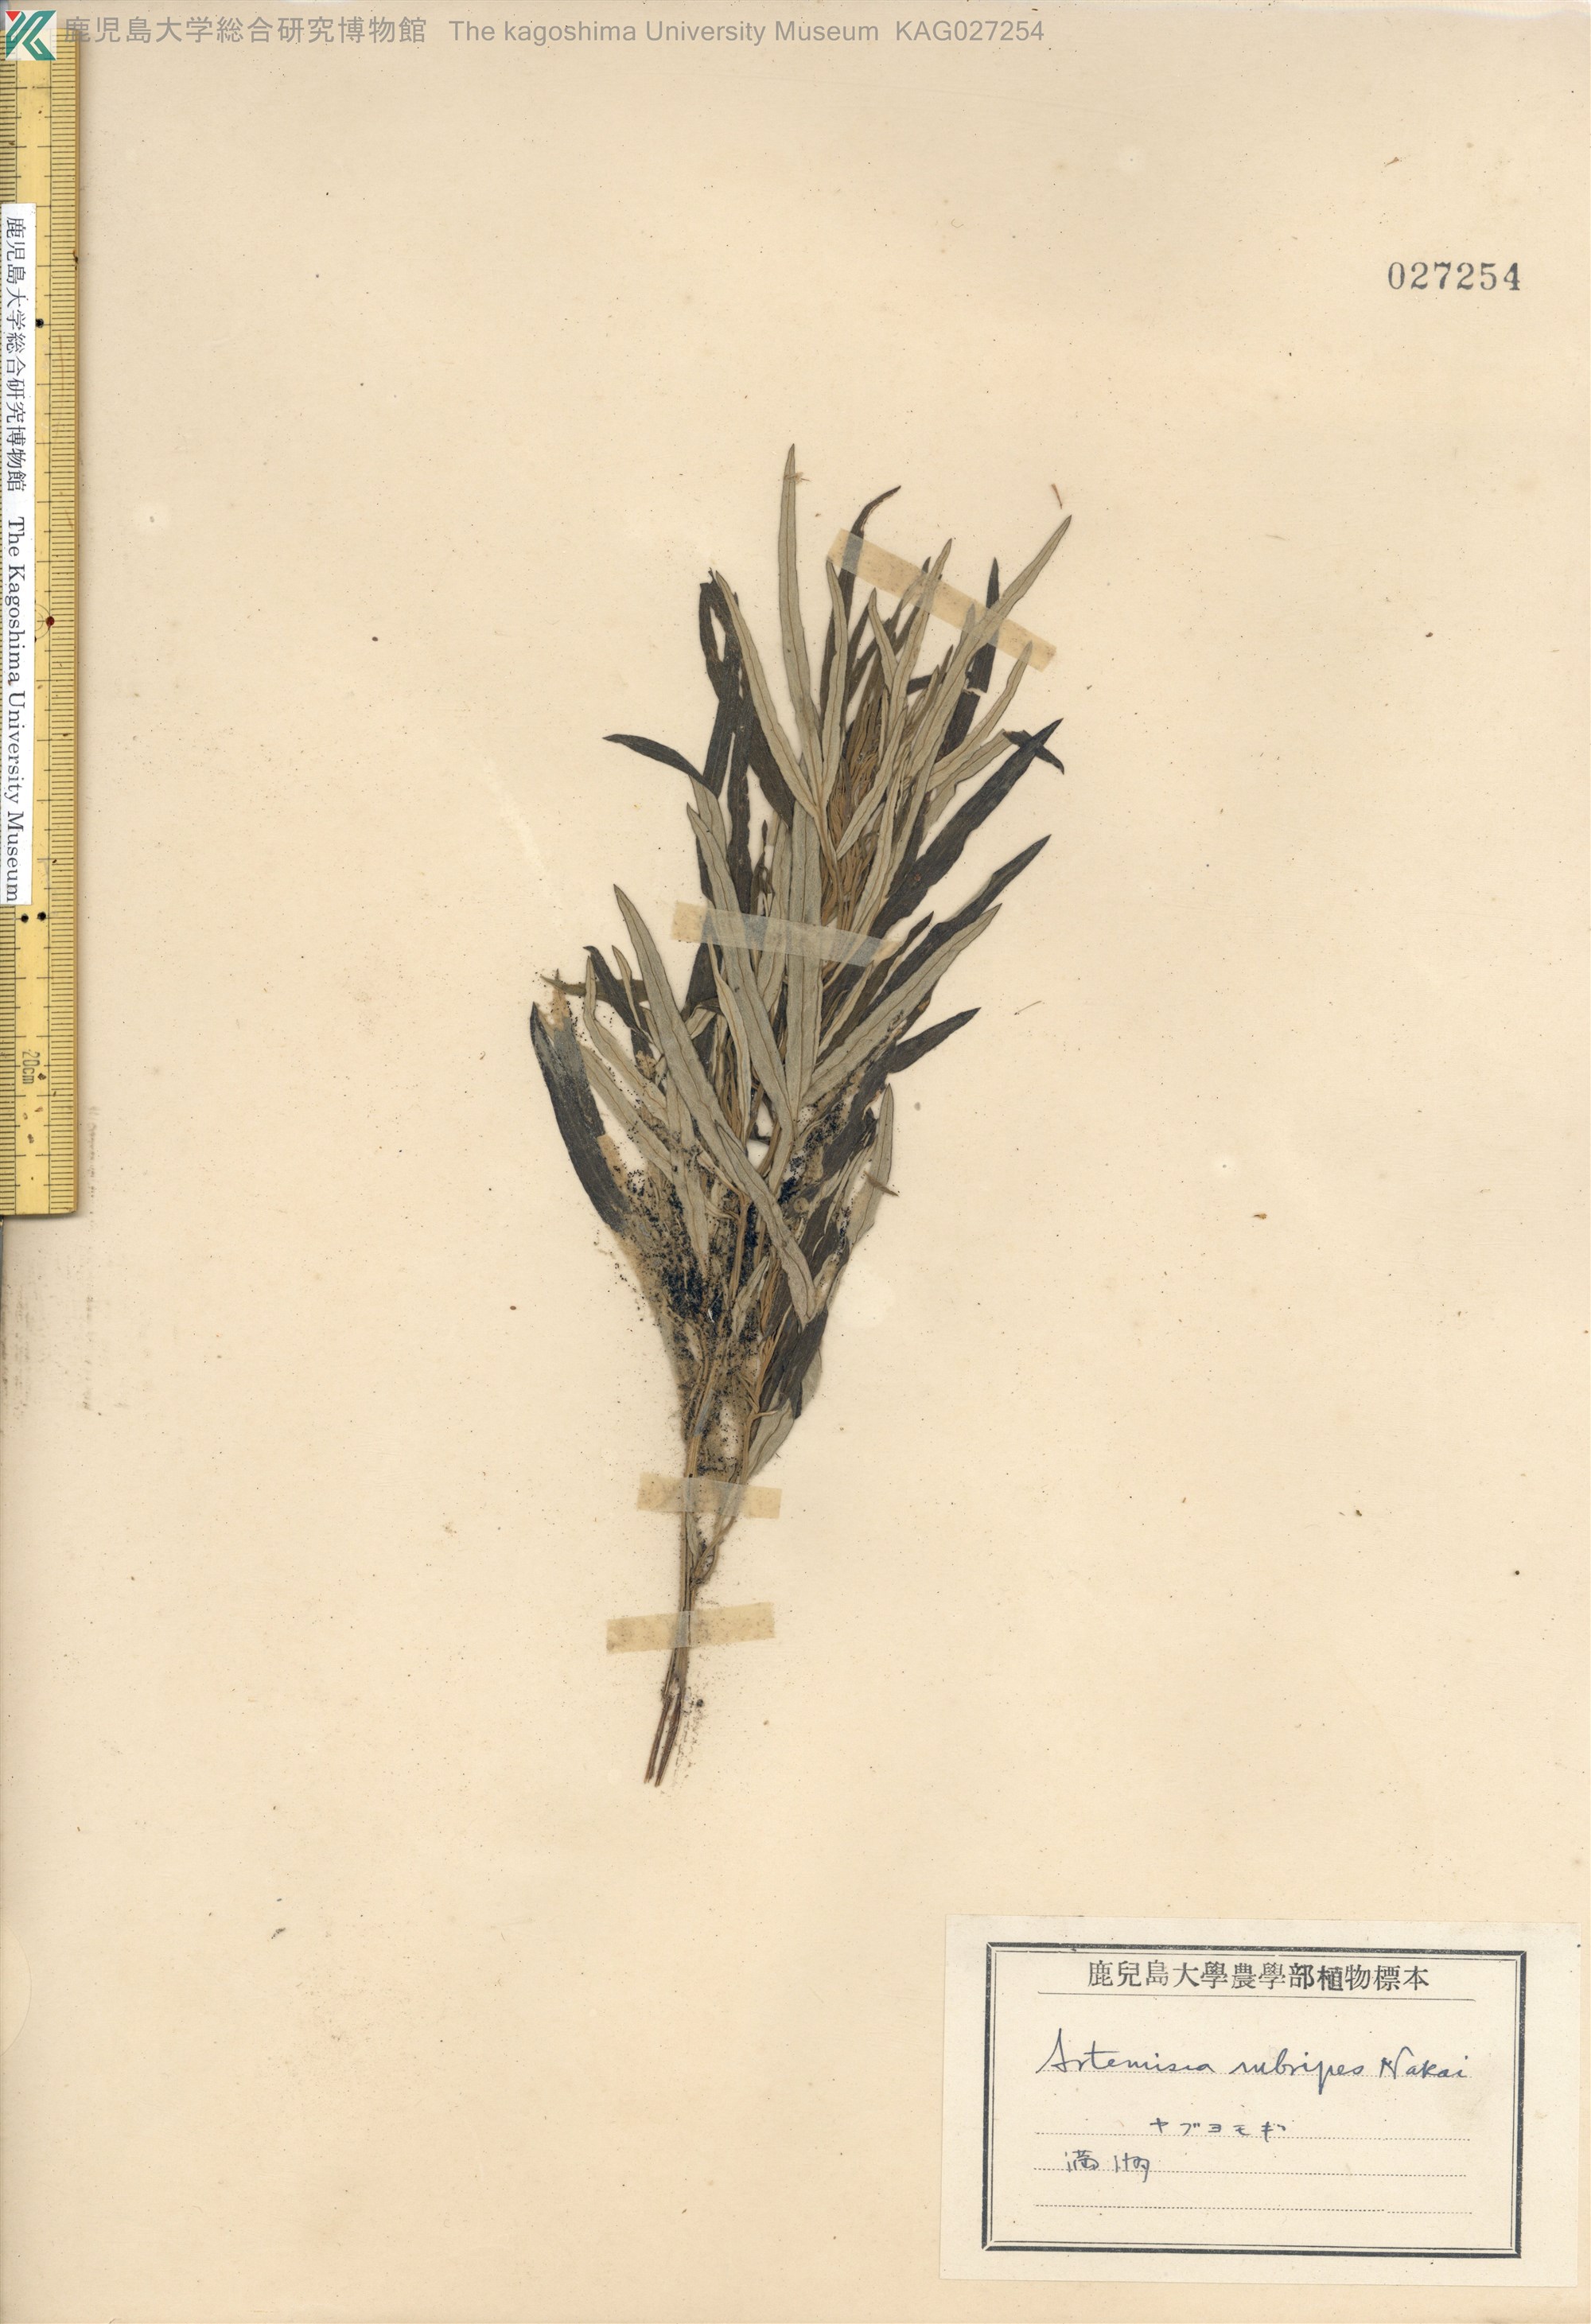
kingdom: Plantae
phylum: Tracheophyta
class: Magnoliopsida
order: Asterales
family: Asteraceae
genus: Artemisia
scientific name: Artemisia rubripes
